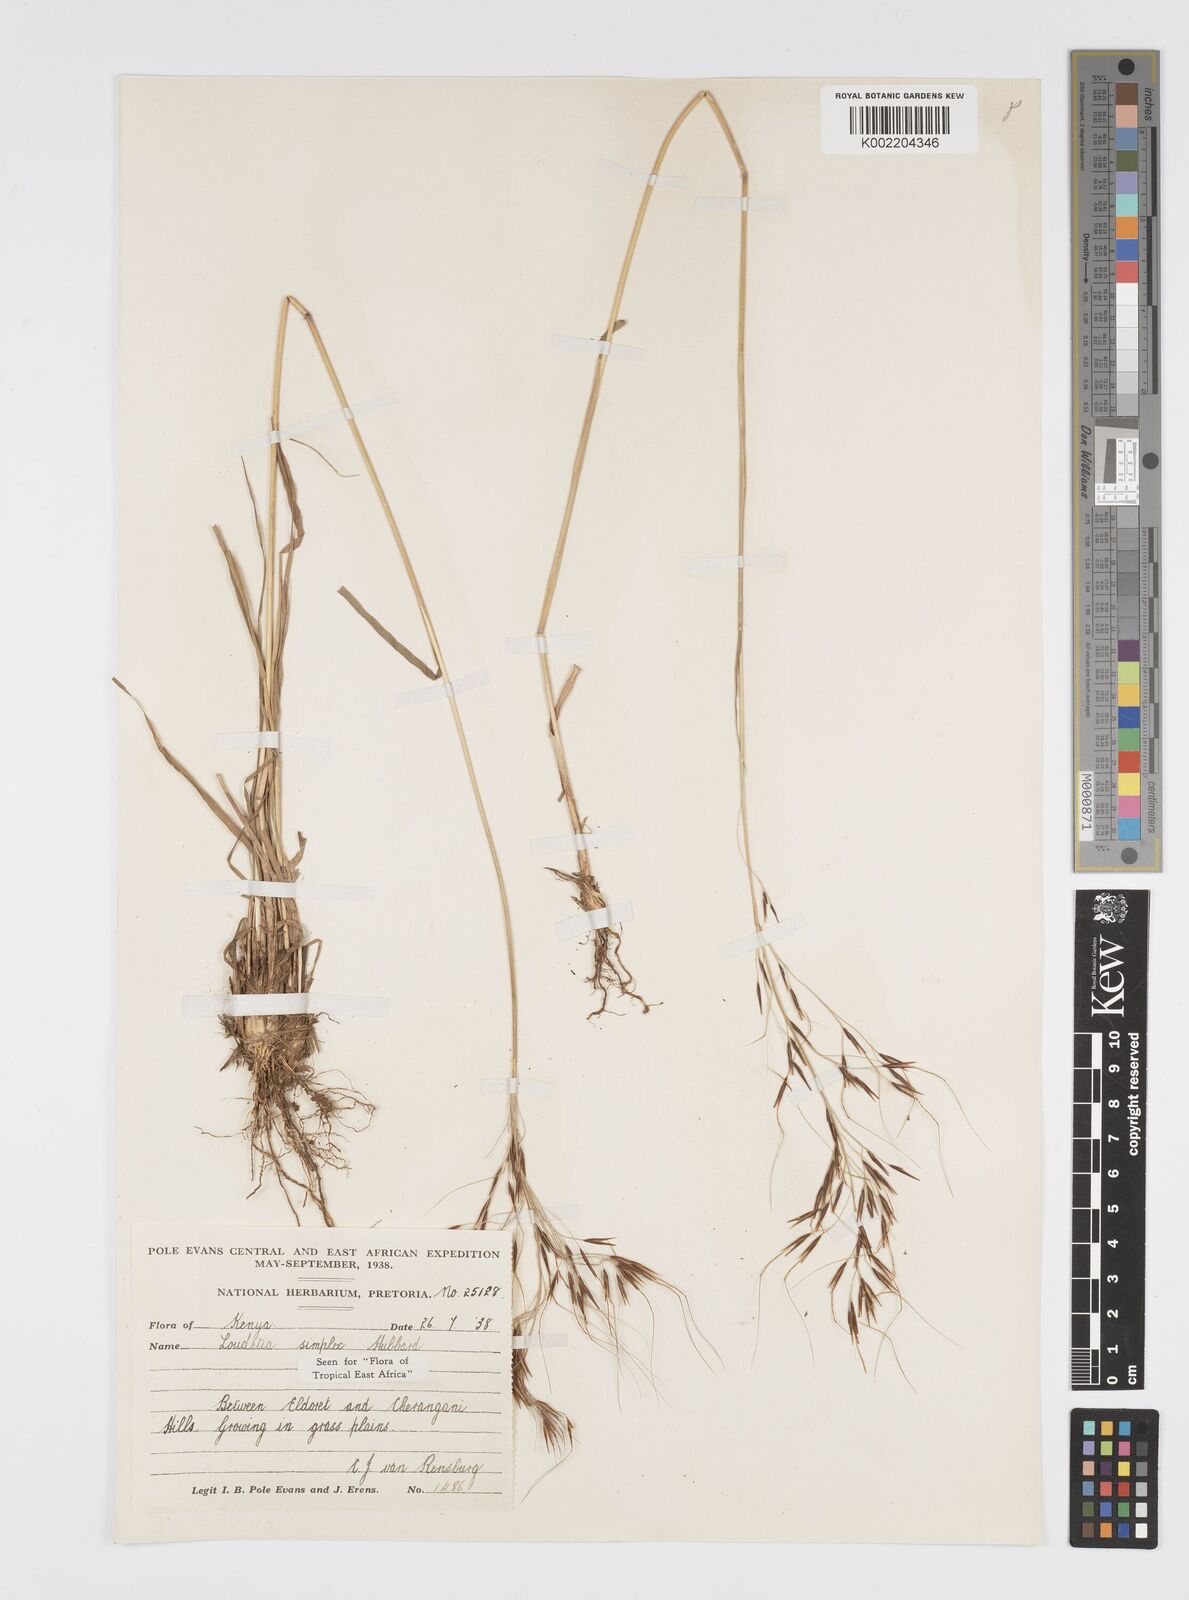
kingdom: Plantae
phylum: Tracheophyta
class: Liliopsida
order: Poales
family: Poaceae
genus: Loudetia
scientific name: Loudetia simplex
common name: Common russet grass
